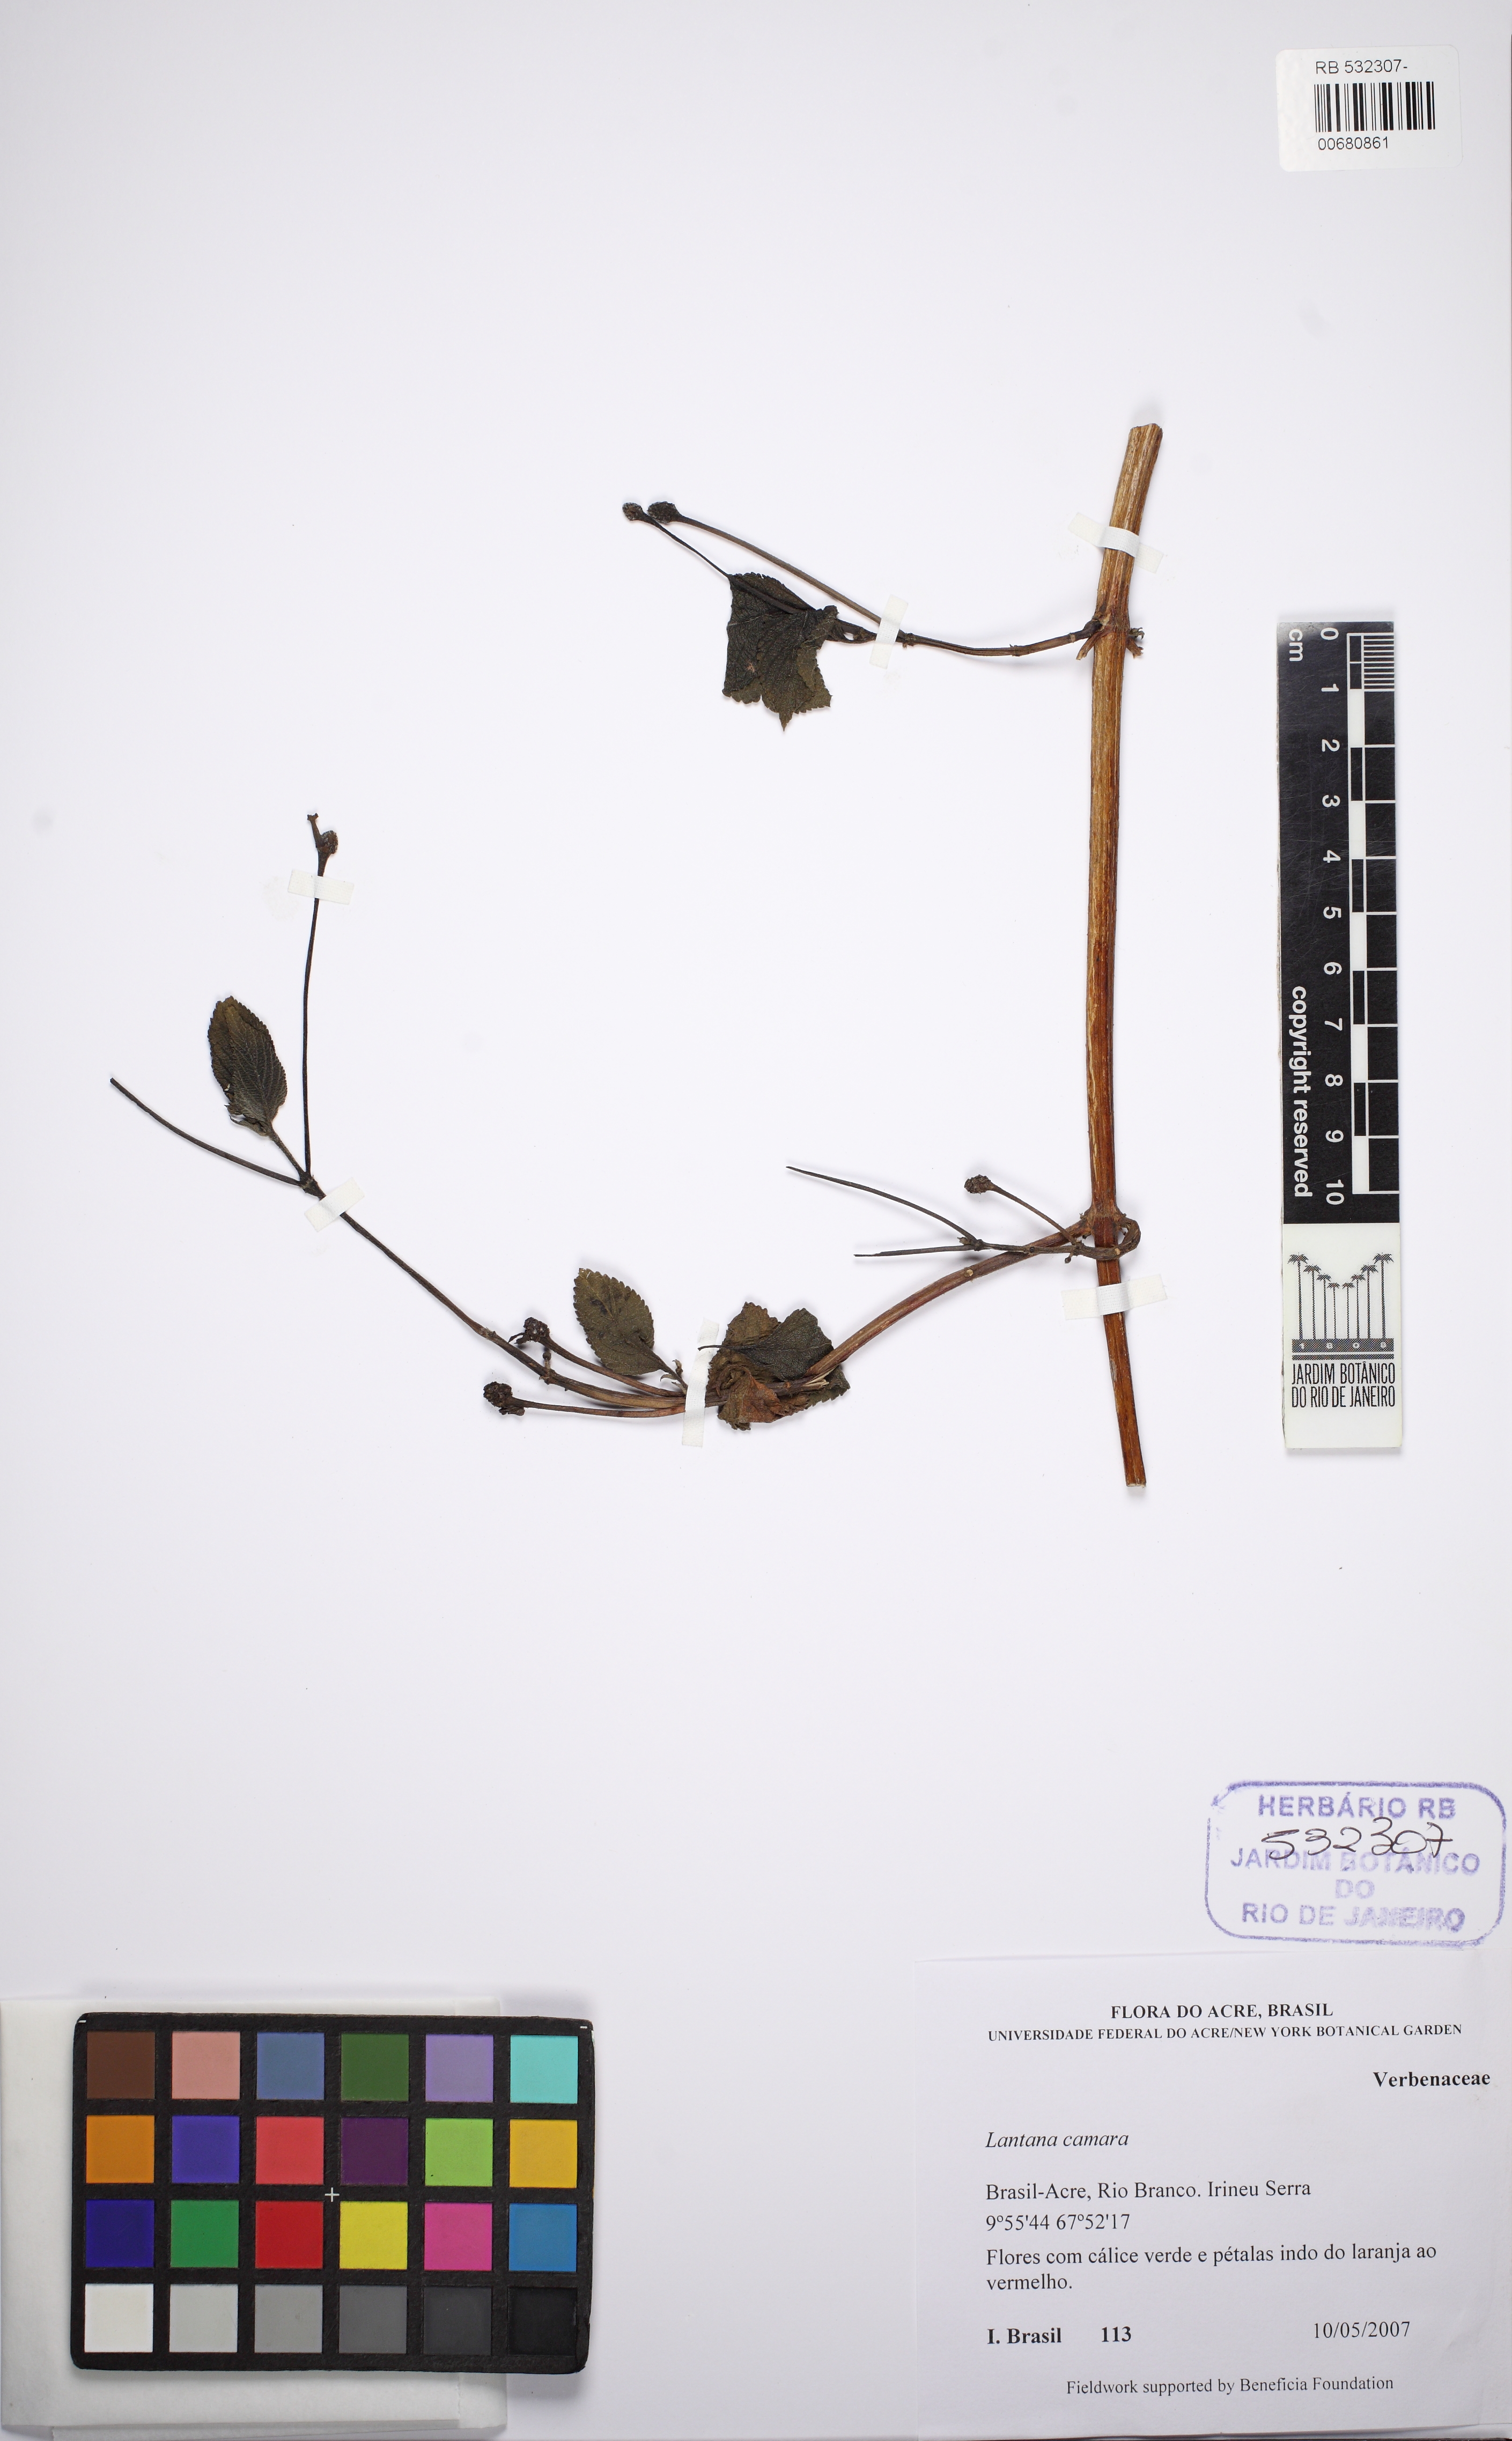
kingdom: Plantae
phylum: Tracheophyta
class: Magnoliopsida
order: Lamiales
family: Verbenaceae
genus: Lantana
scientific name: Lantana camara
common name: Lantana
